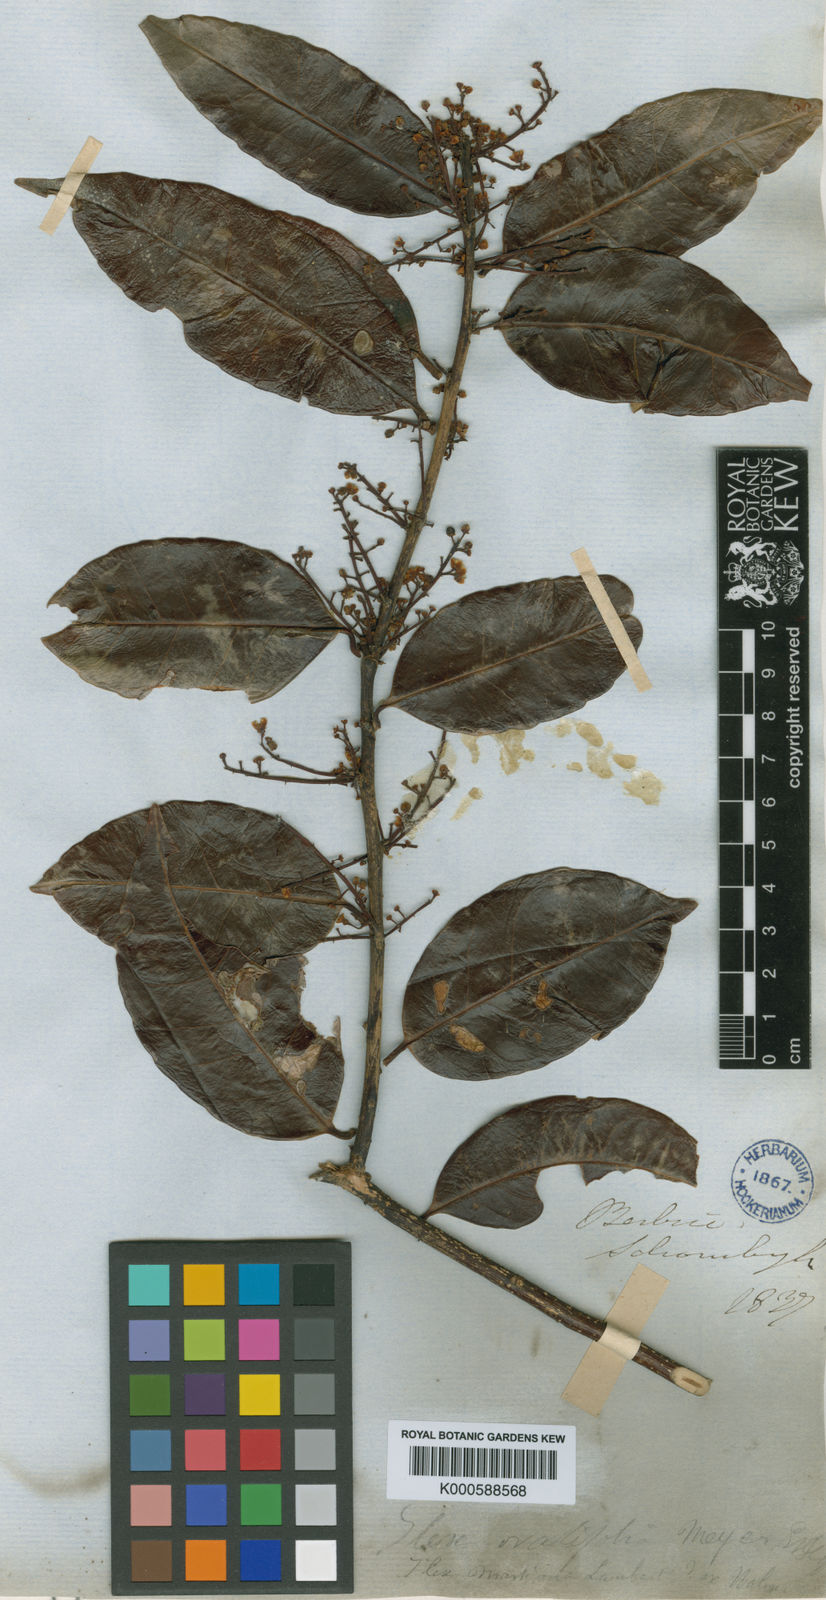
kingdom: Plantae
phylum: Tracheophyta
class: Magnoliopsida
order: Aquifoliales
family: Aquifoliaceae
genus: Ilex
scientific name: Ilex
